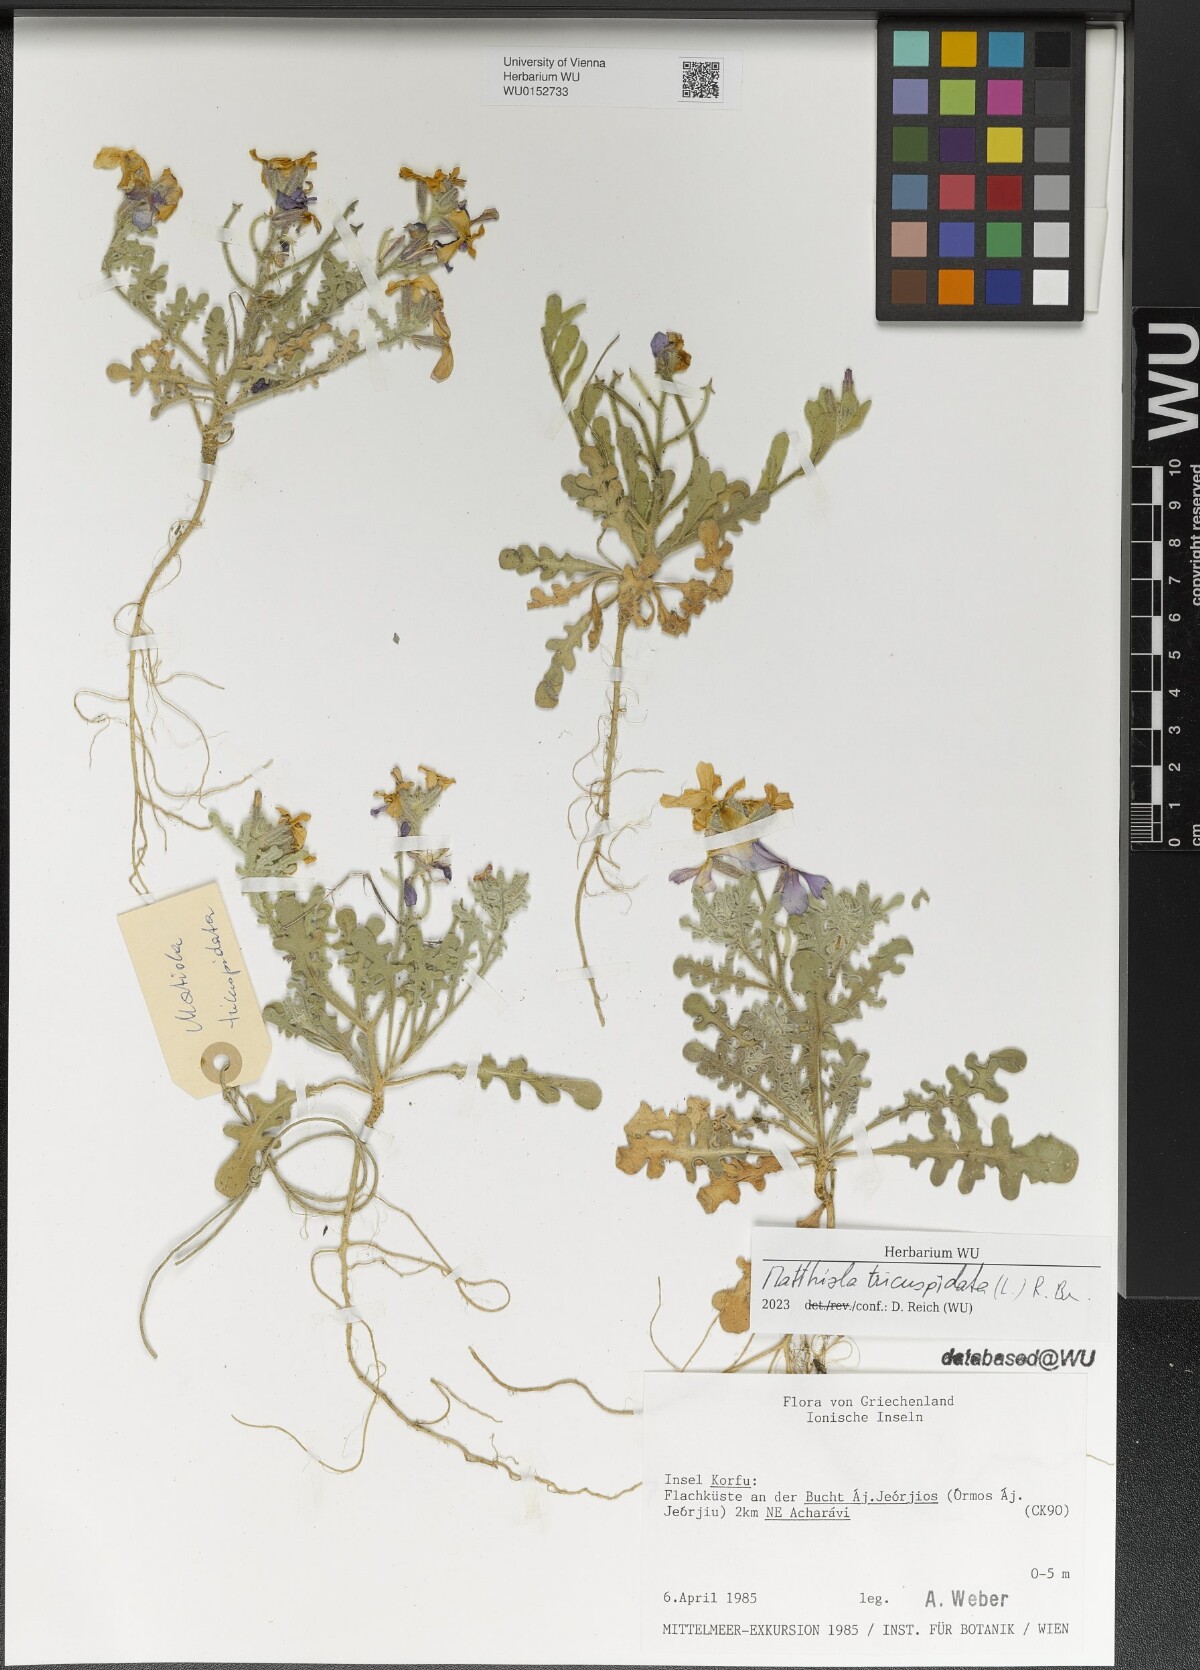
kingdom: Plantae
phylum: Tracheophyta
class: Magnoliopsida
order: Brassicales
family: Brassicaceae
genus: Matthiola
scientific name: Matthiola tricuspidata
